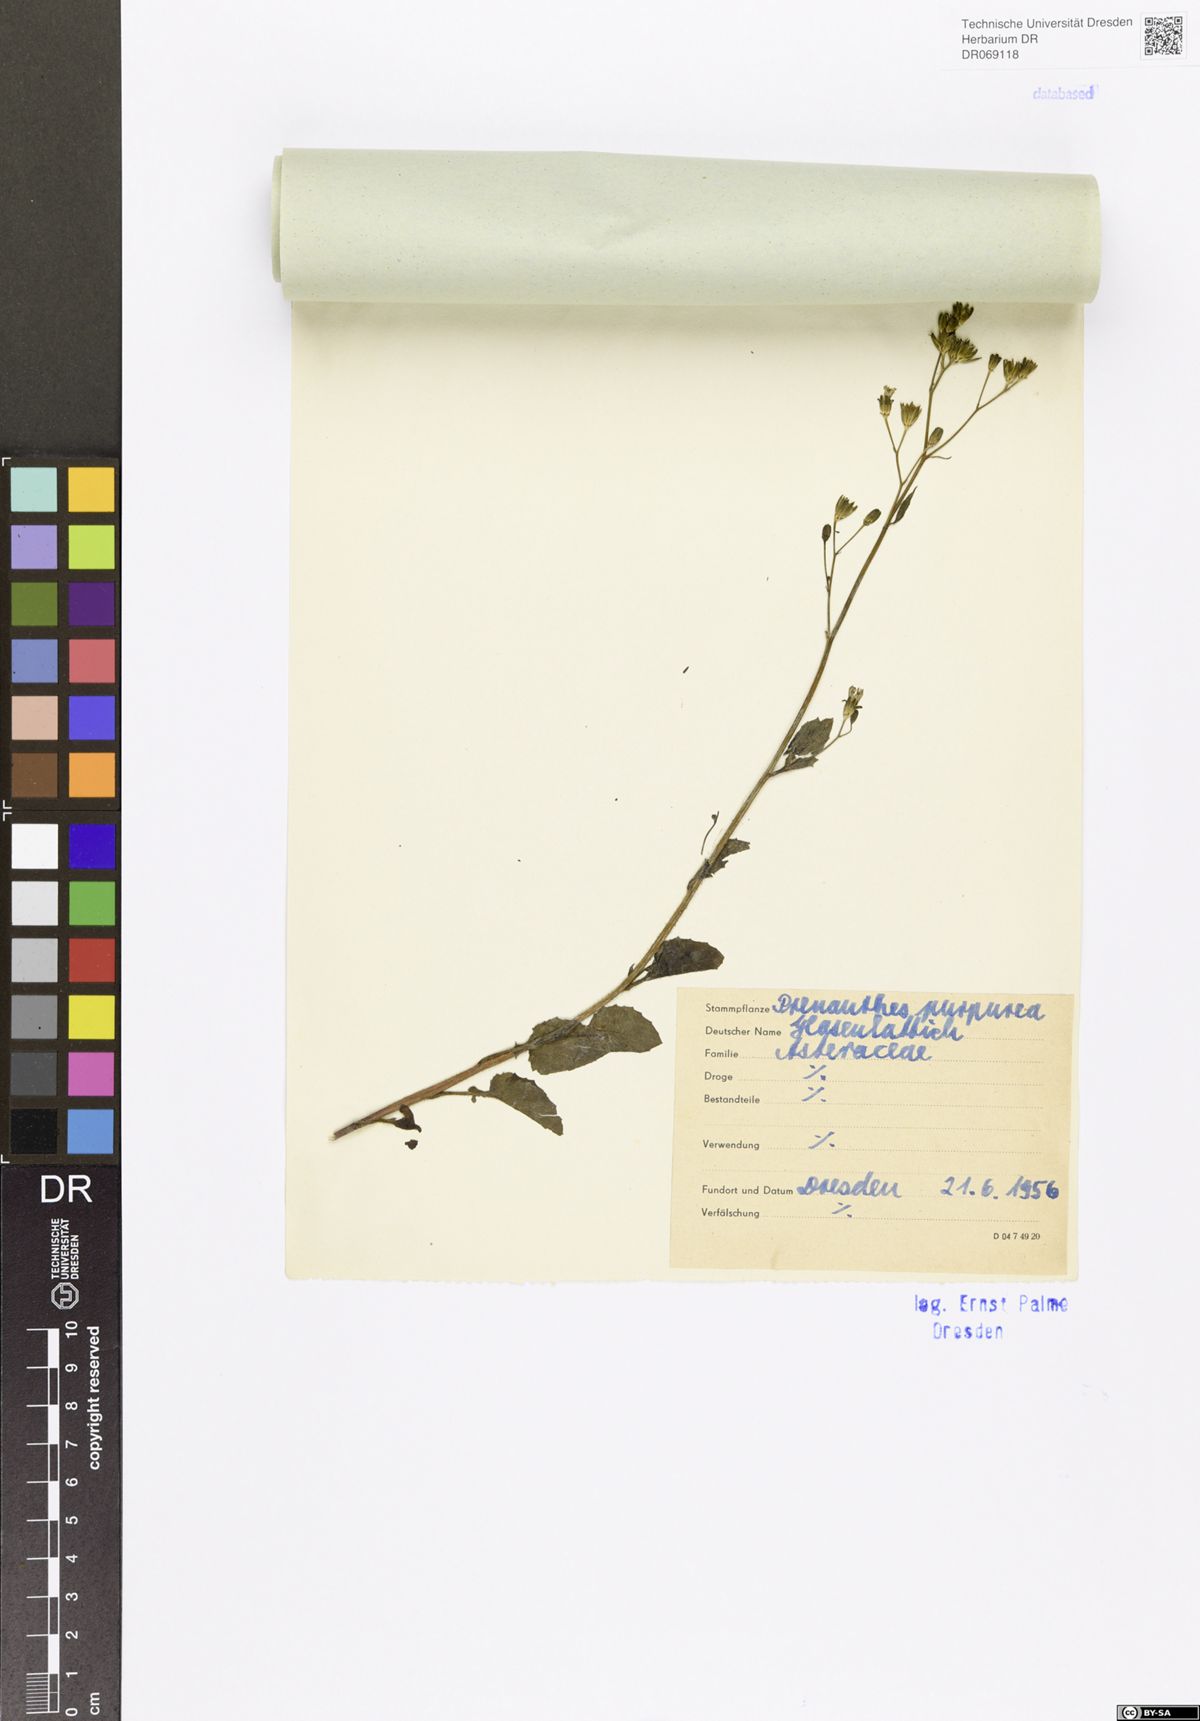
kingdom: Plantae
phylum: Tracheophyta
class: Magnoliopsida
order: Asterales
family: Asteraceae
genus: Prenanthes
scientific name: Prenanthes purpurea
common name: Purple lettuce
